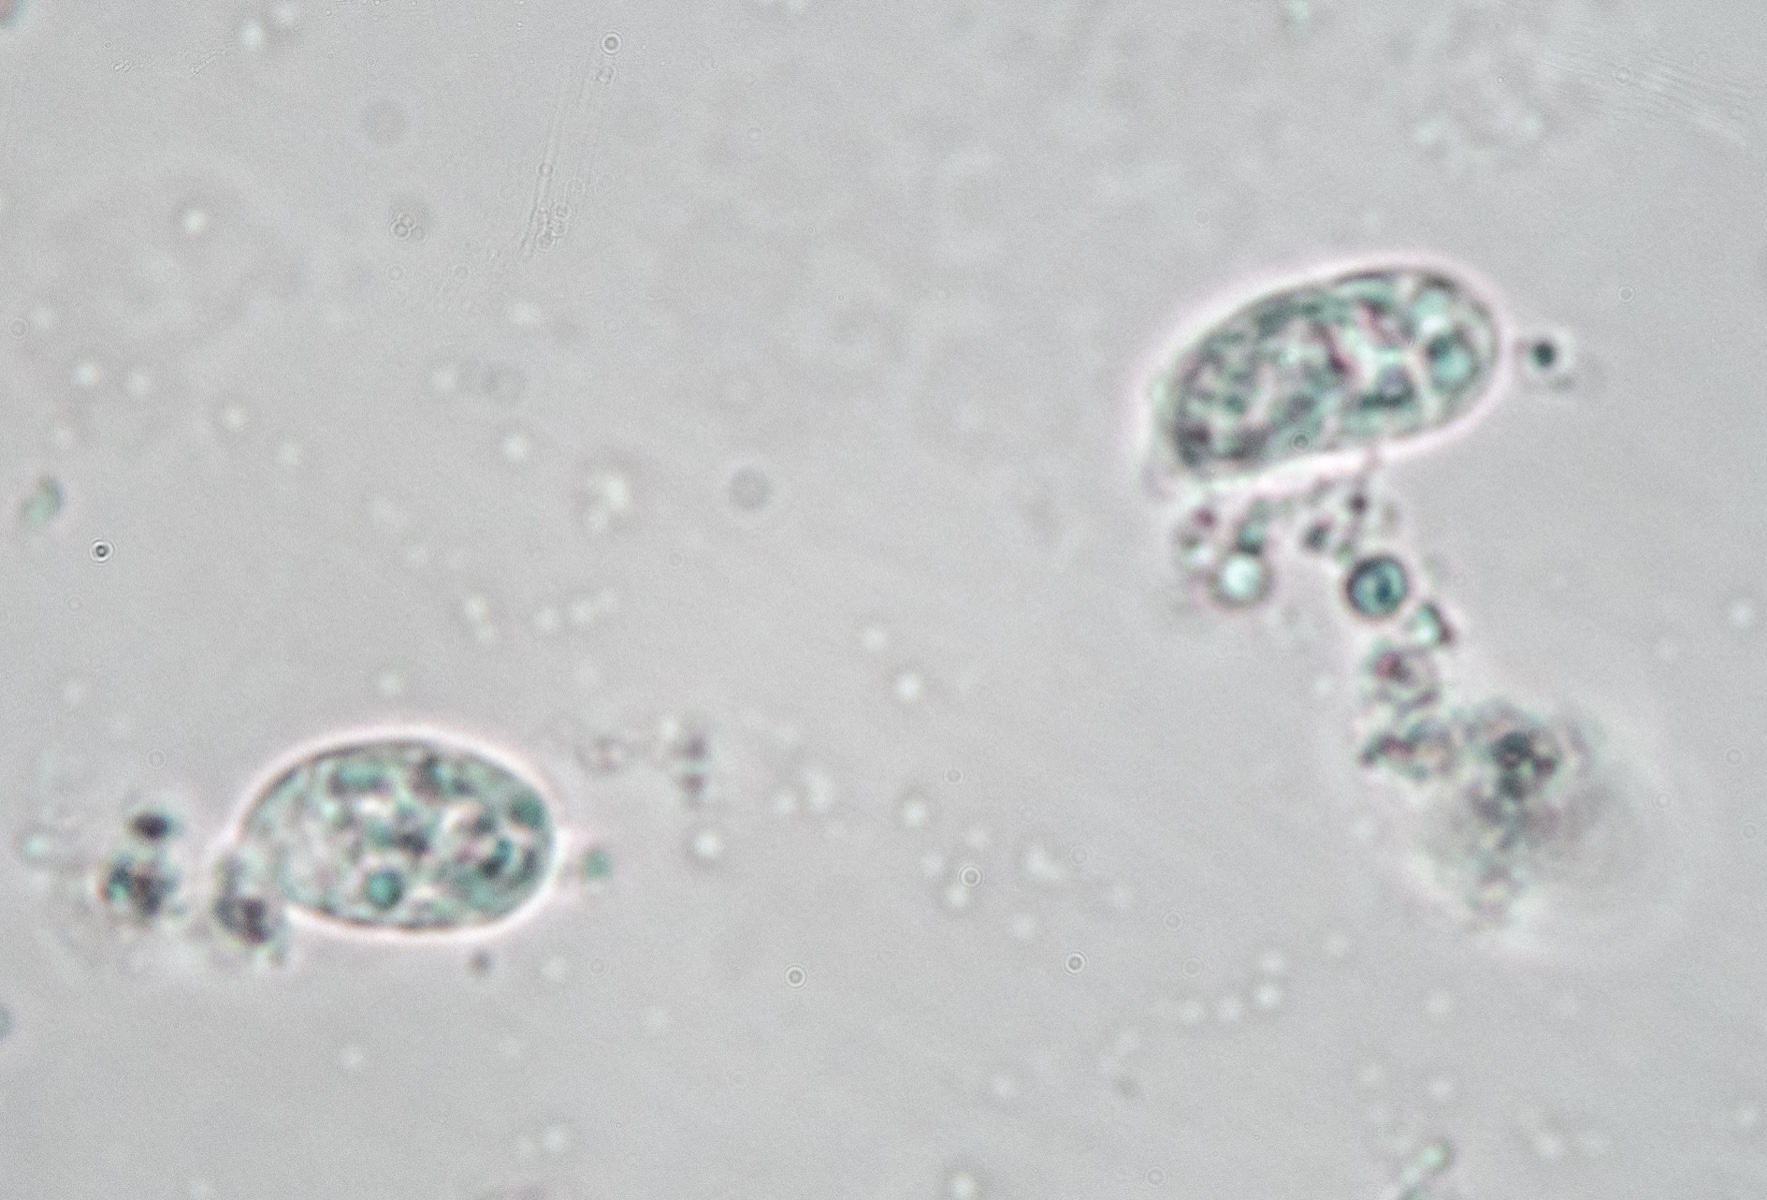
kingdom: Fungi
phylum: Basidiomycota
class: Agaricomycetes
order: Agaricales
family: Mycenaceae
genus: Mycena
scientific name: Mycena olivaceomarginata
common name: brunægget huesvamp
